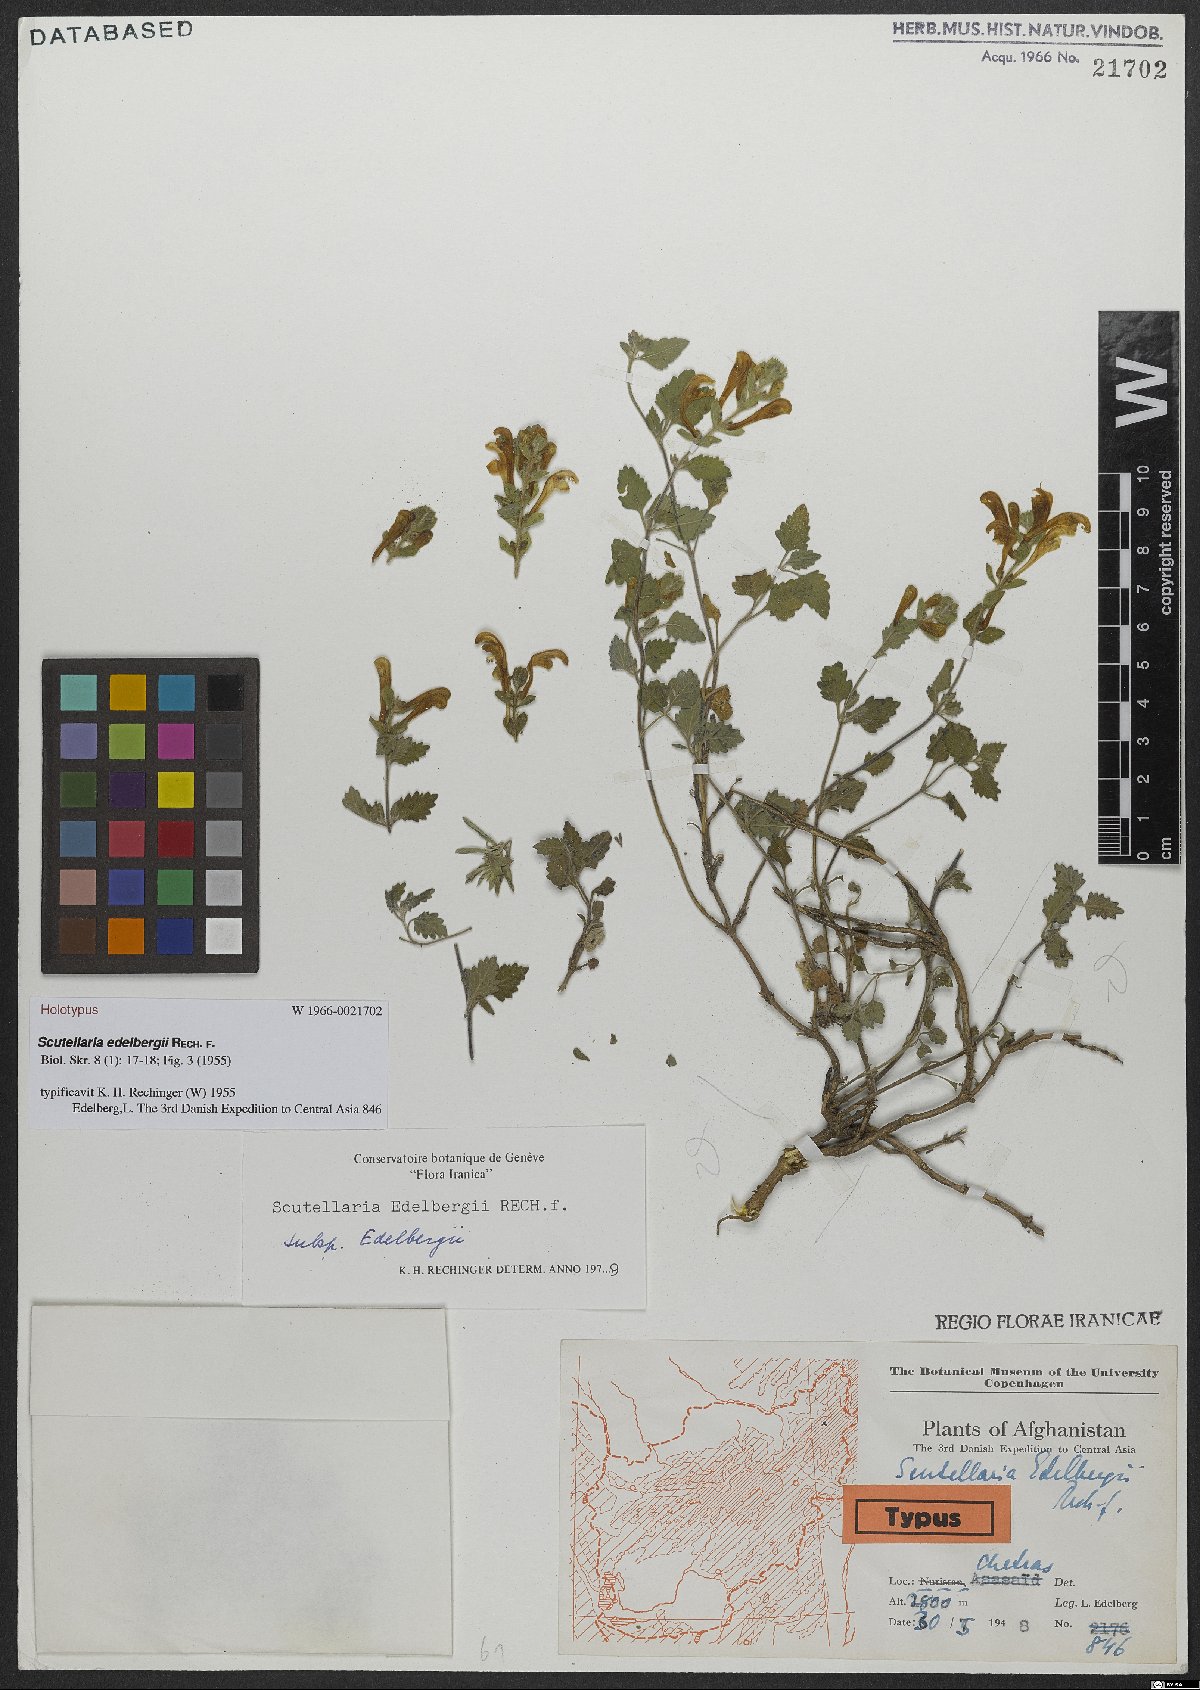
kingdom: Plantae
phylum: Tracheophyta
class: Magnoliopsida
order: Lamiales
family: Lamiaceae
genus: Scutellaria
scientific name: Scutellaria edelbergii
